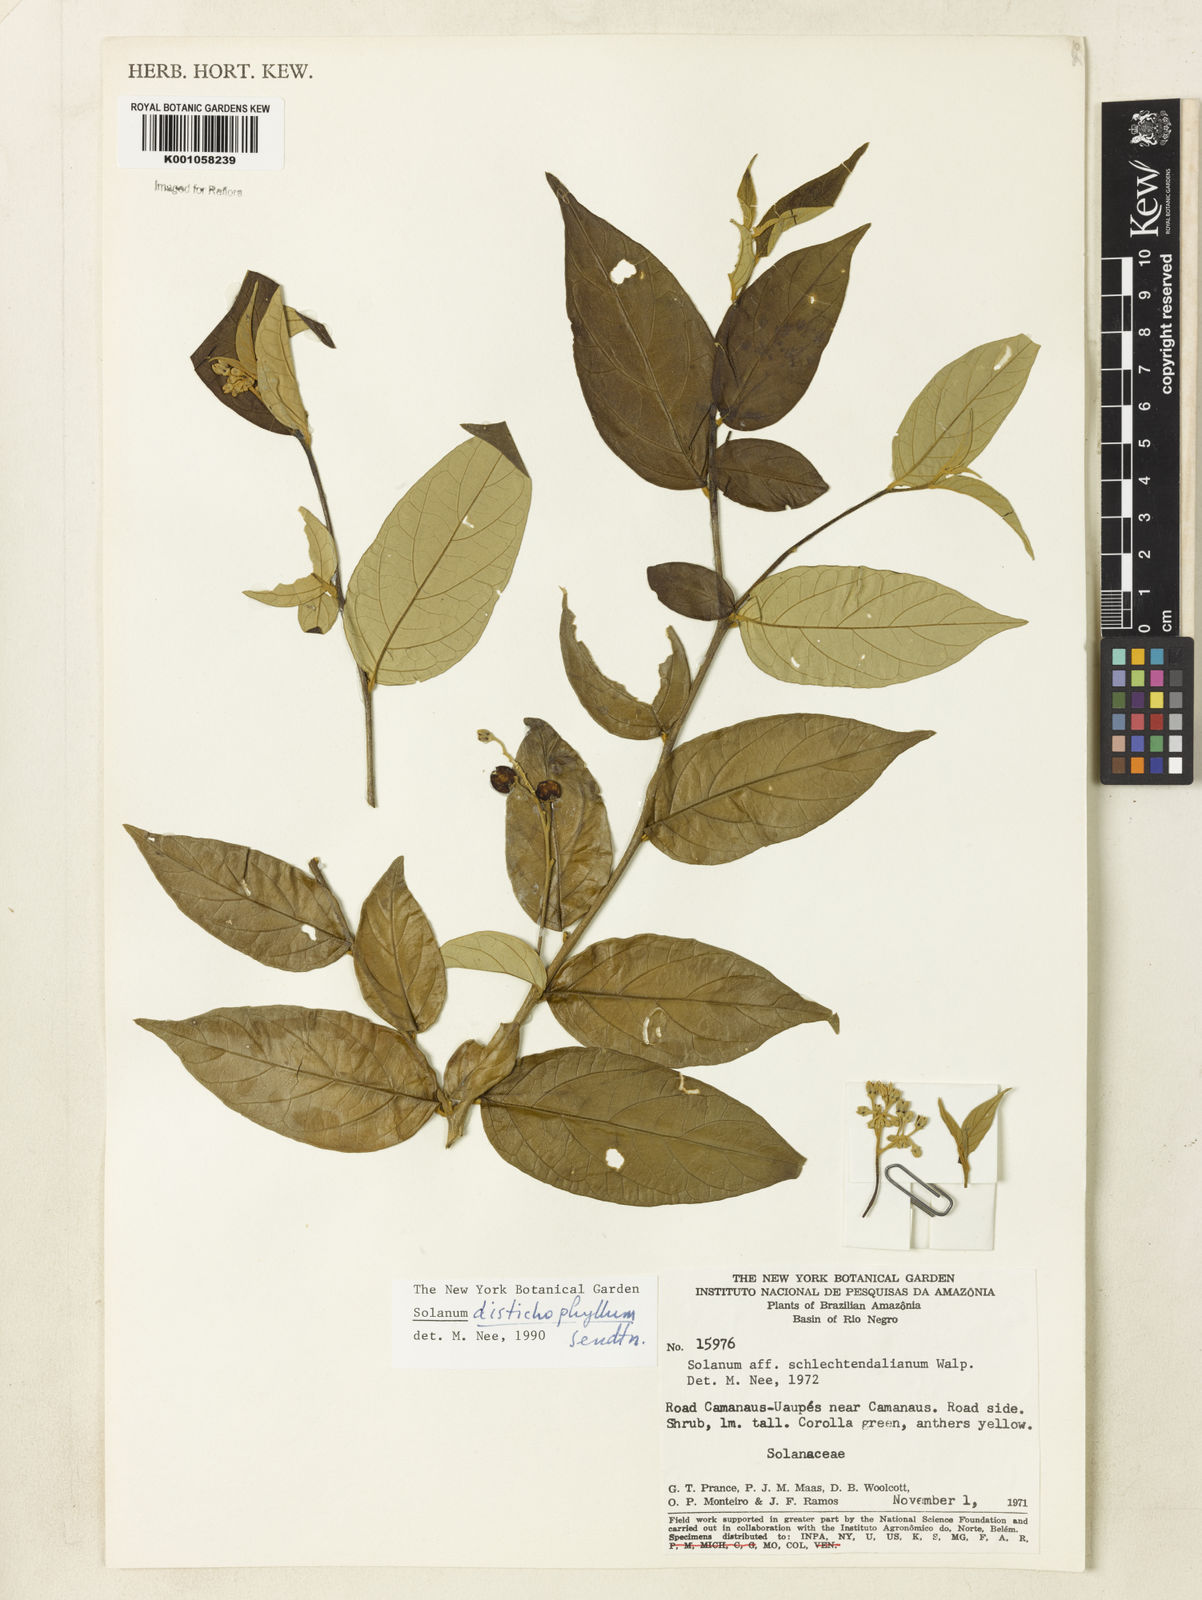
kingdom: Plantae
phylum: Tracheophyta
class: Magnoliopsida
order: Solanales
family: Solanaceae
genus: Solanum
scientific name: Solanum distichophyllum
